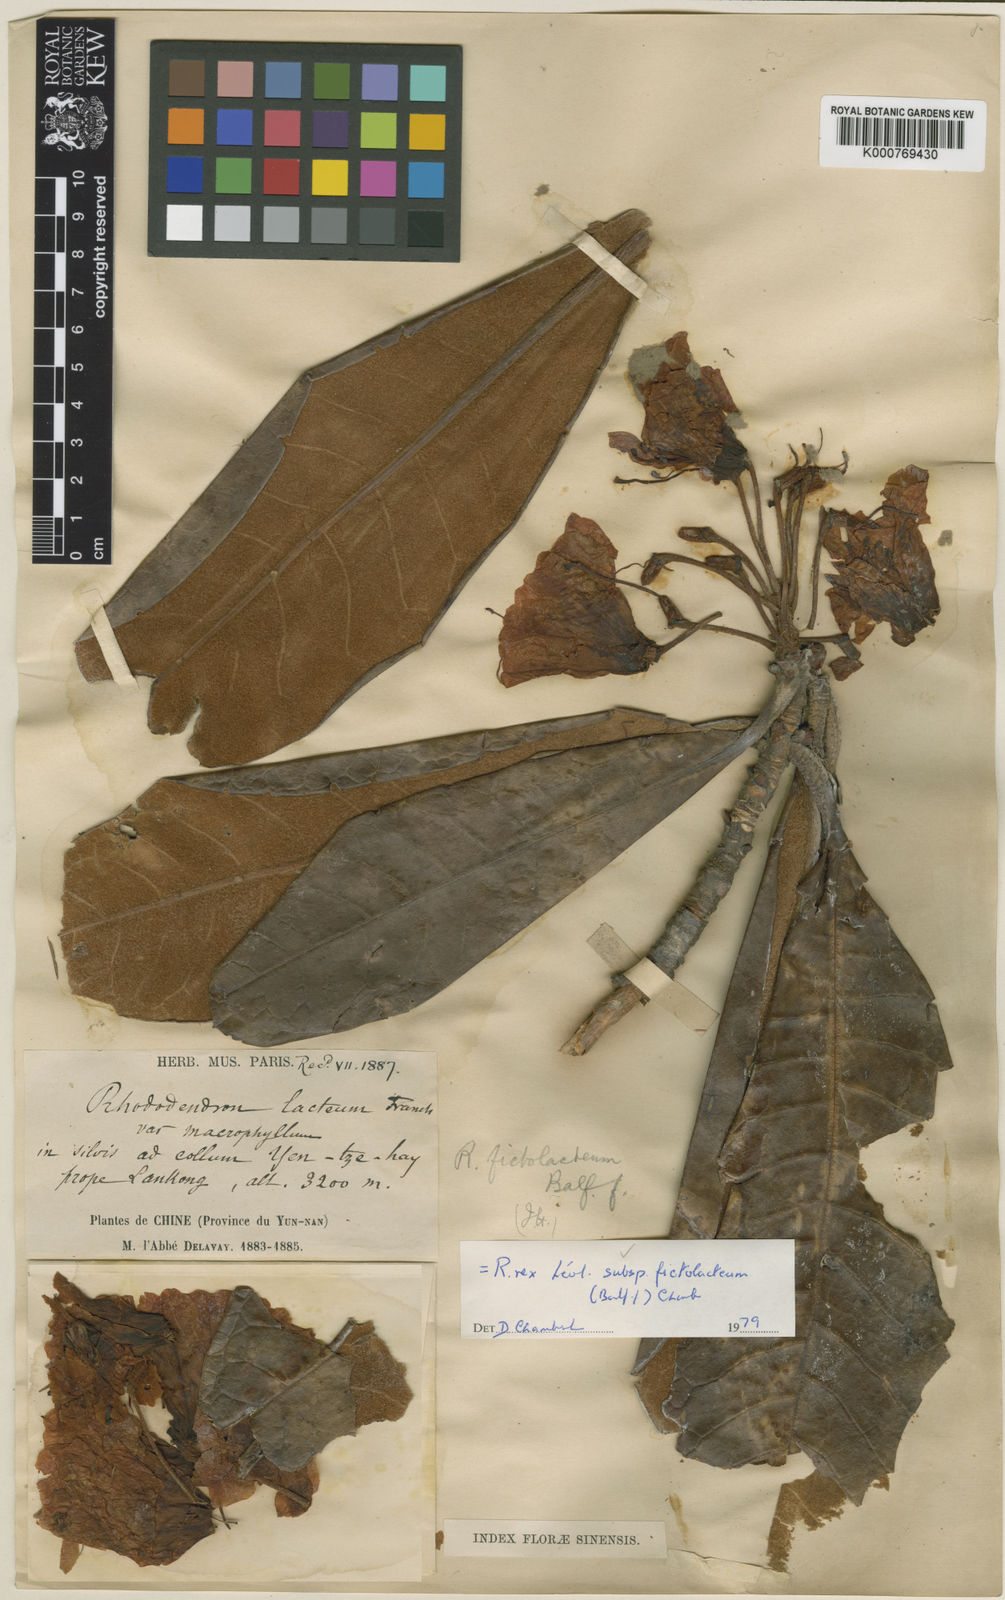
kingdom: Plantae
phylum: Tracheophyta
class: Magnoliopsida
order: Ericales
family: Ericaceae
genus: Rhododendron
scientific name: Rhododendron rex
